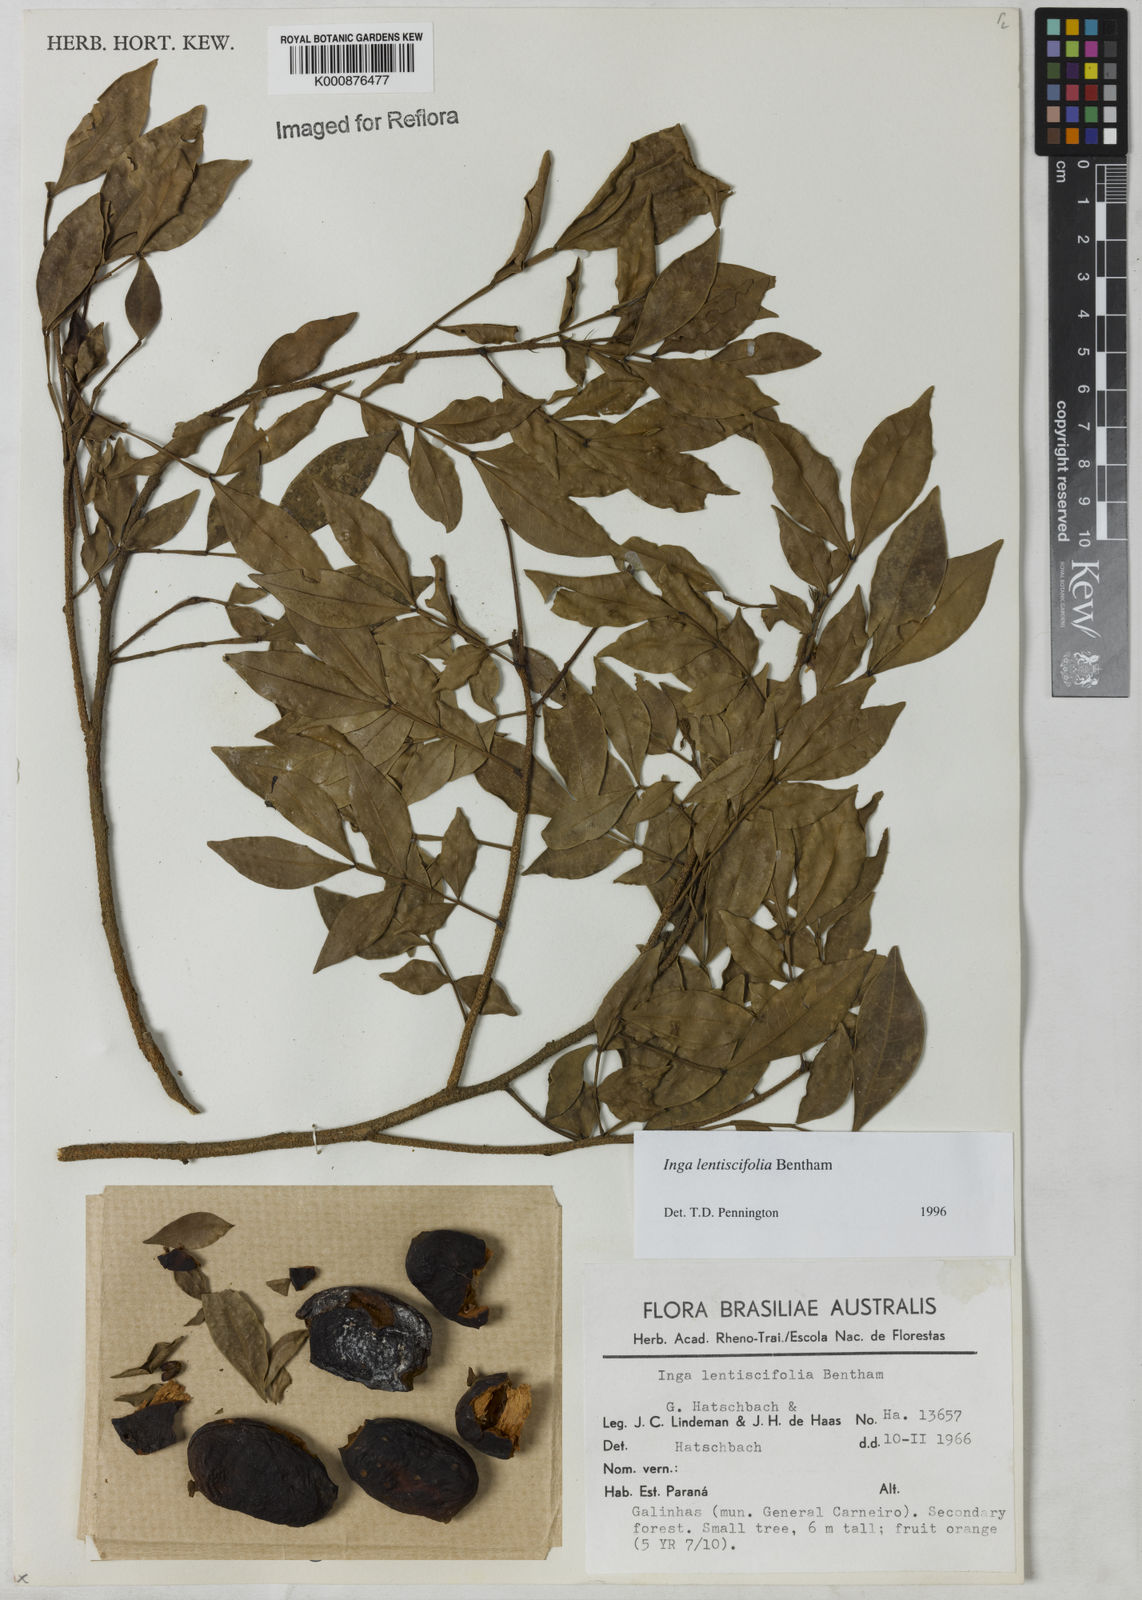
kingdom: Plantae
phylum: Tracheophyta
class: Magnoliopsida
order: Fabales
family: Fabaceae
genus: Inga
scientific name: Inga lentiscifolia
